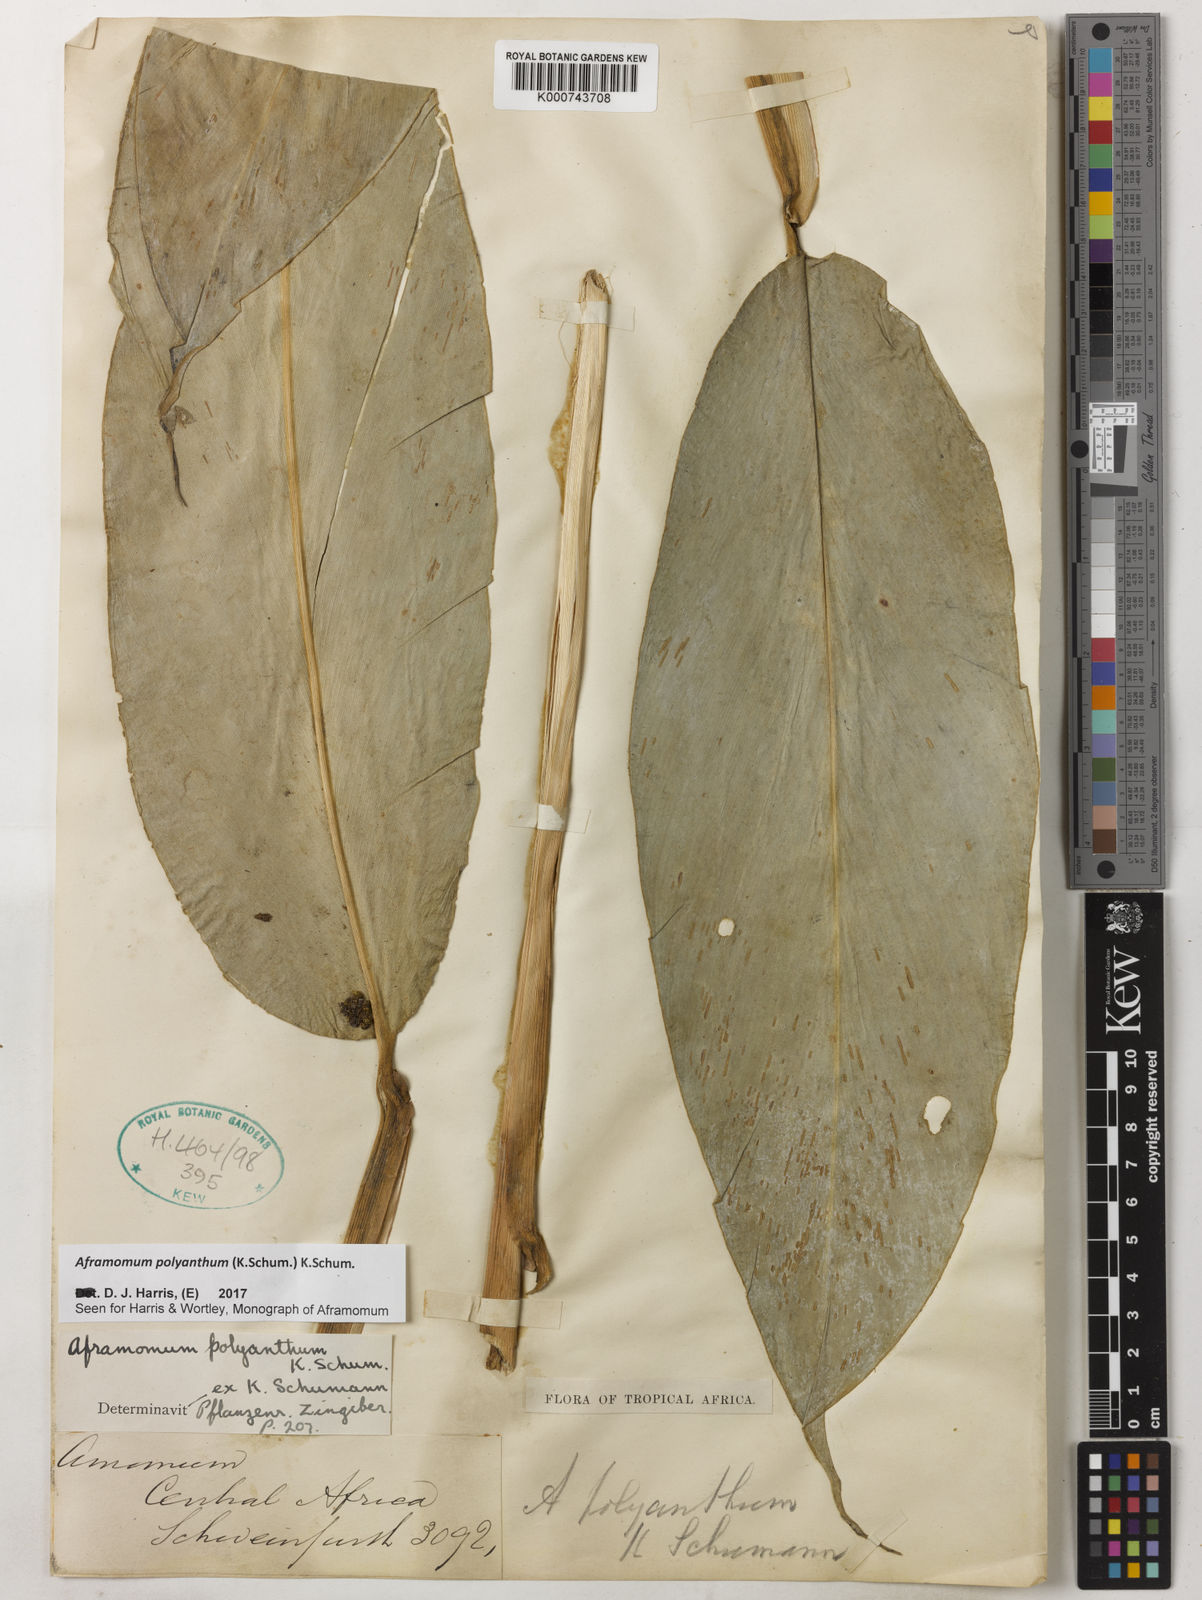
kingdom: Plantae
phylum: Tracheophyta
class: Liliopsida
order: Zingiberales
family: Zingiberaceae
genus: Aframomum
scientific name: Aframomum polyanthum
